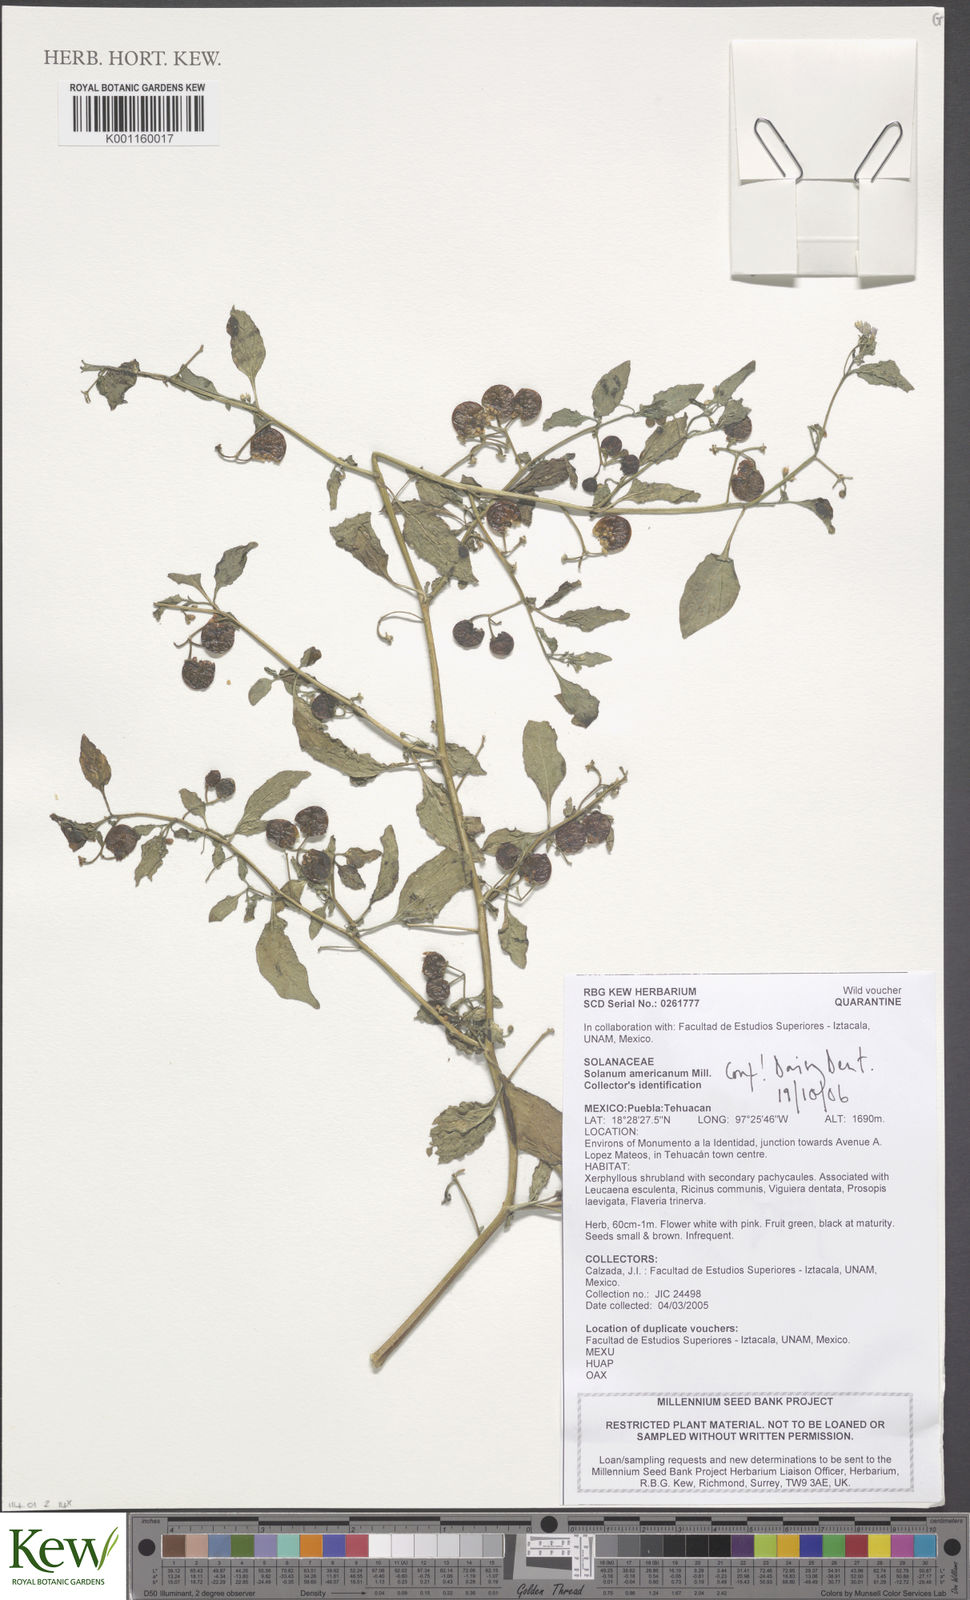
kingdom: Plantae
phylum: Tracheophyta
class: Magnoliopsida
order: Solanales
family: Solanaceae
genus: Solanum
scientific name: Solanum americanum
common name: American black nightshade
